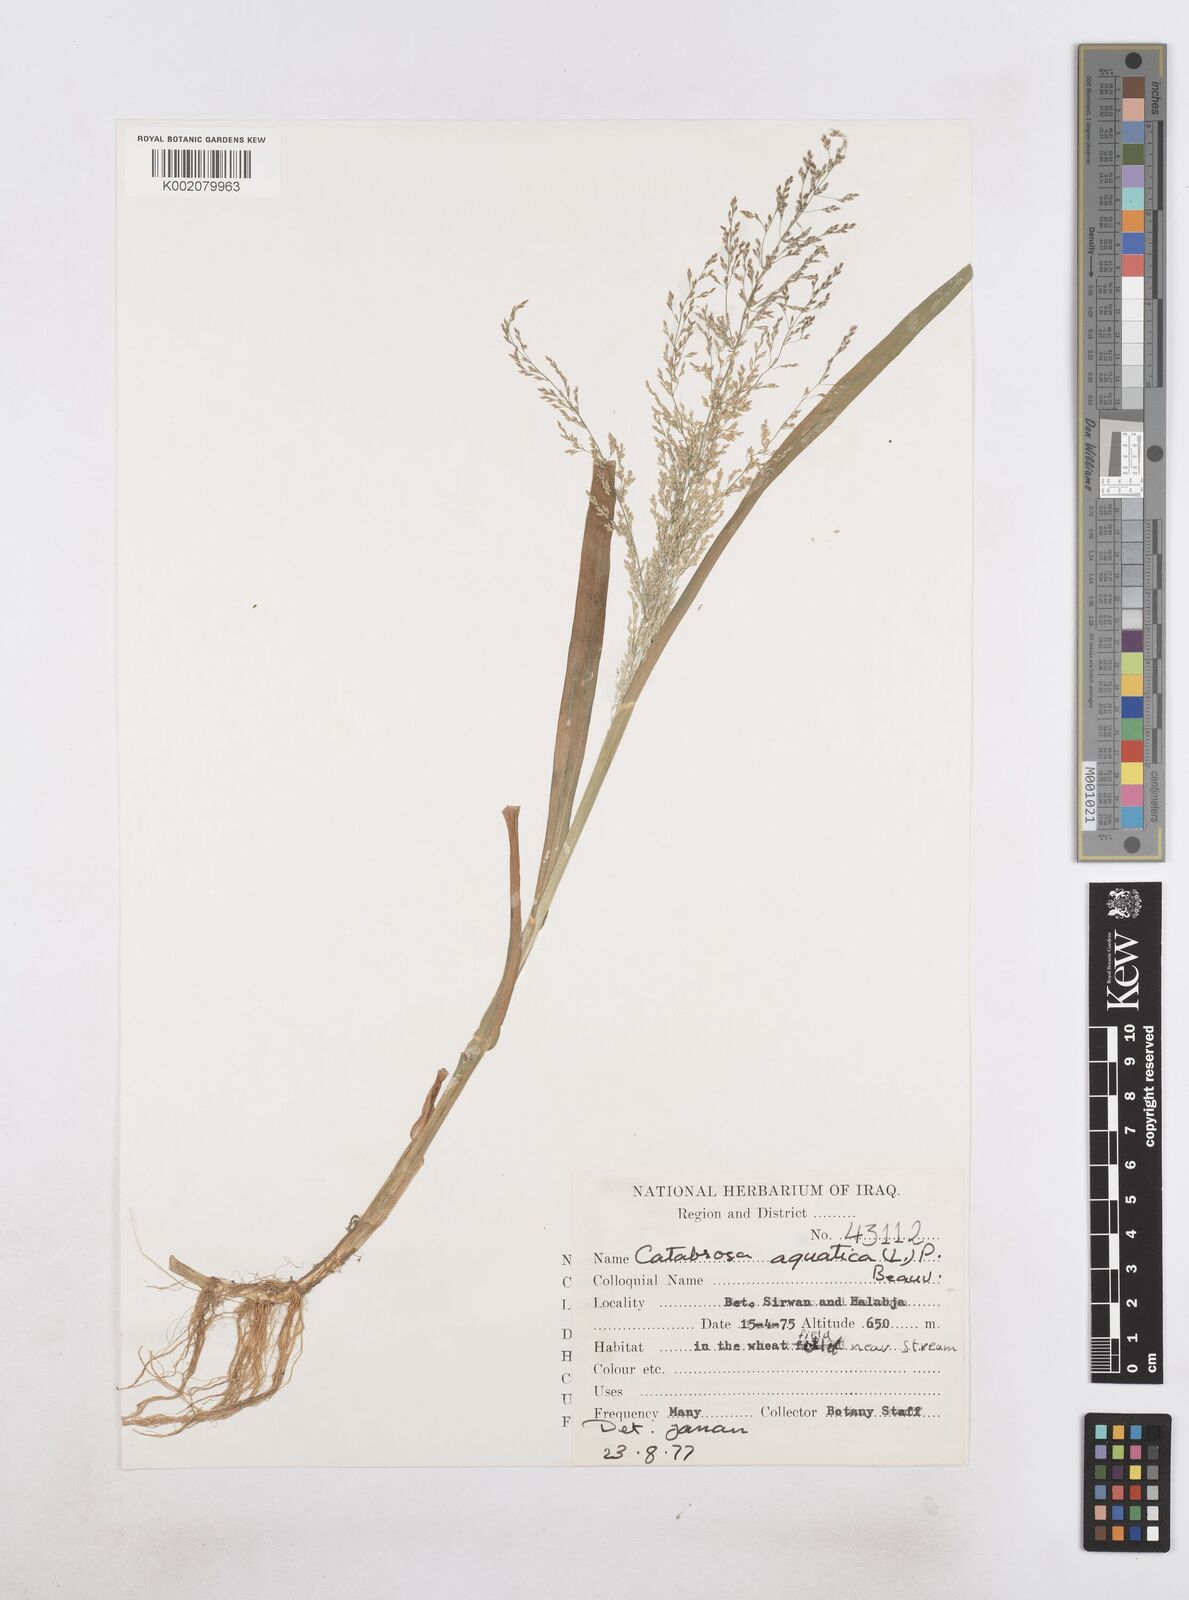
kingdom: Plantae
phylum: Tracheophyta
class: Liliopsida
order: Poales
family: Poaceae
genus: Catabrosa
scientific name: Catabrosa aquatica
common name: Whorl-grass
